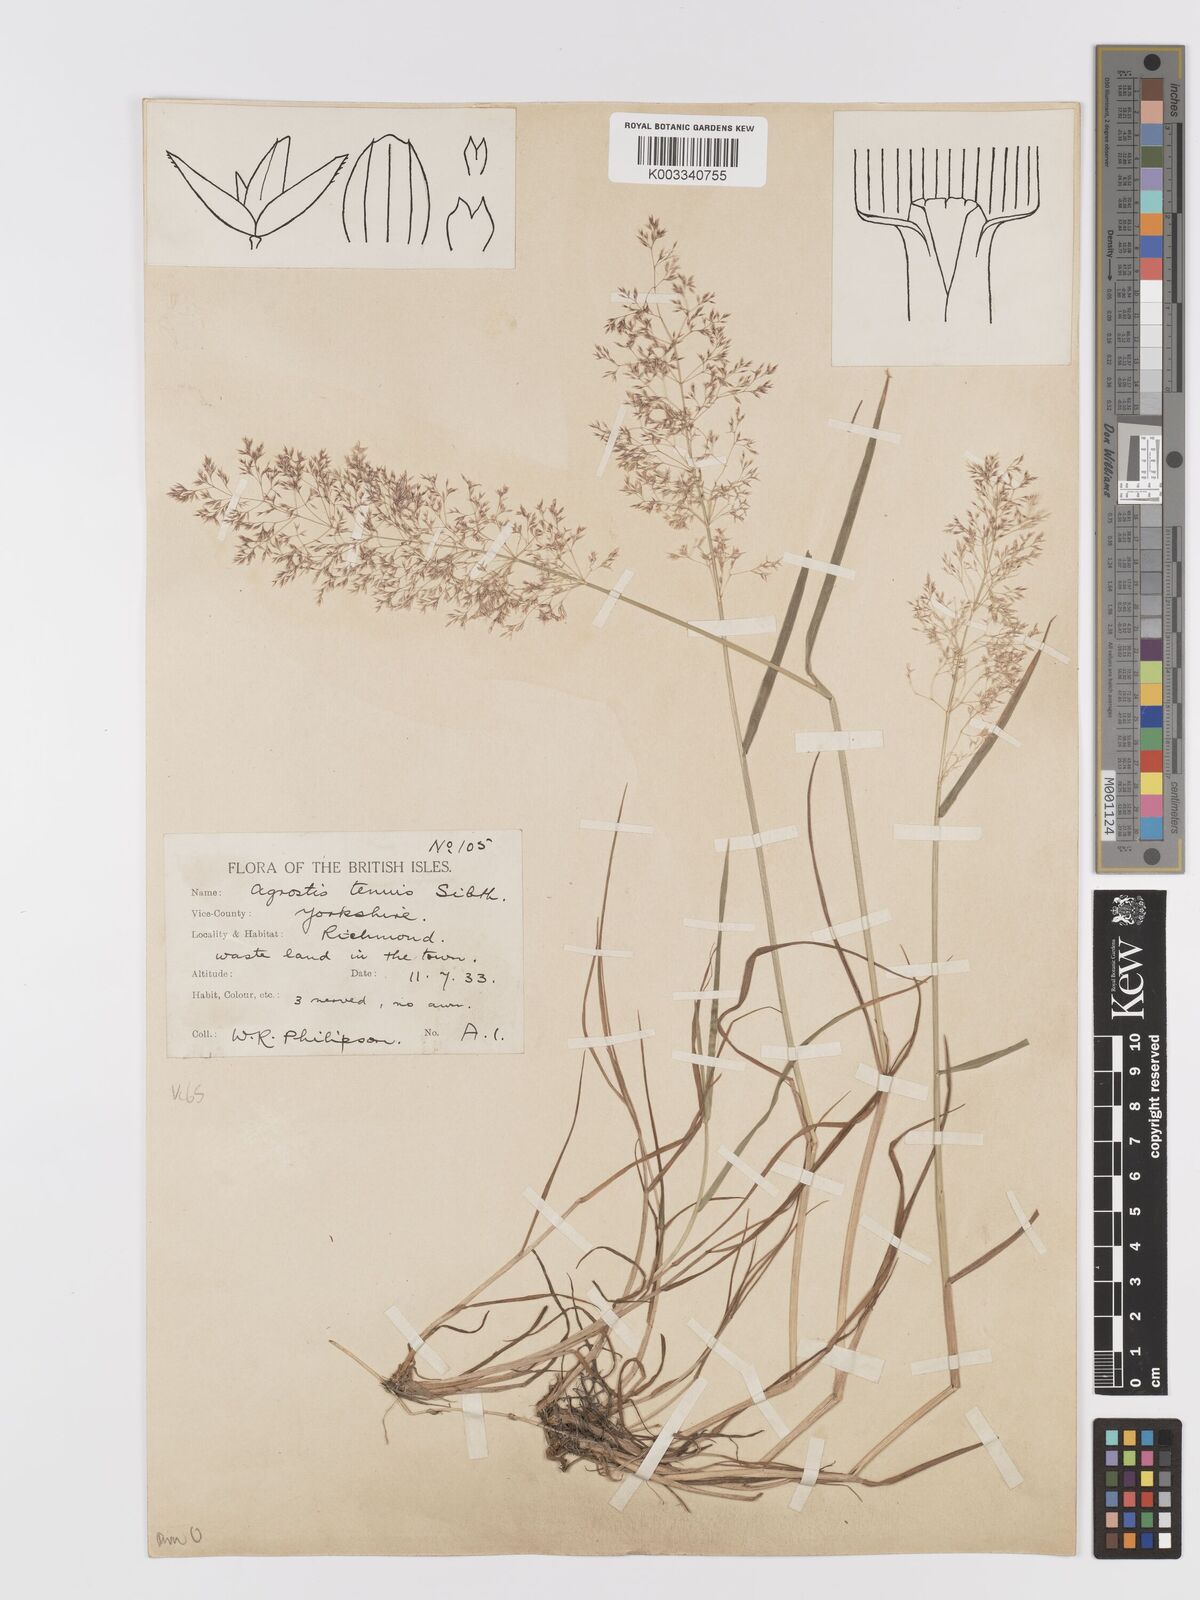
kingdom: Plantae
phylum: Tracheophyta
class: Liliopsida
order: Poales
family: Poaceae
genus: Agrostis
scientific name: Agrostis capillaris
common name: Colonial bentgrass
